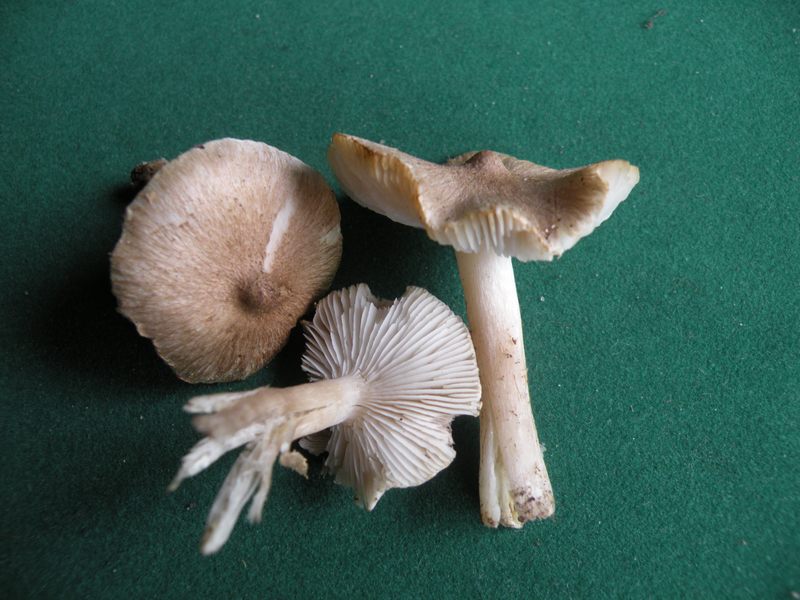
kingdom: Fungi
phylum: Basidiomycota
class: Agaricomycetes
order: Agaricales
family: Tricholomataceae
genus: Tricholoma
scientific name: Tricholoma argyraceum
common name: spids ridderhat
